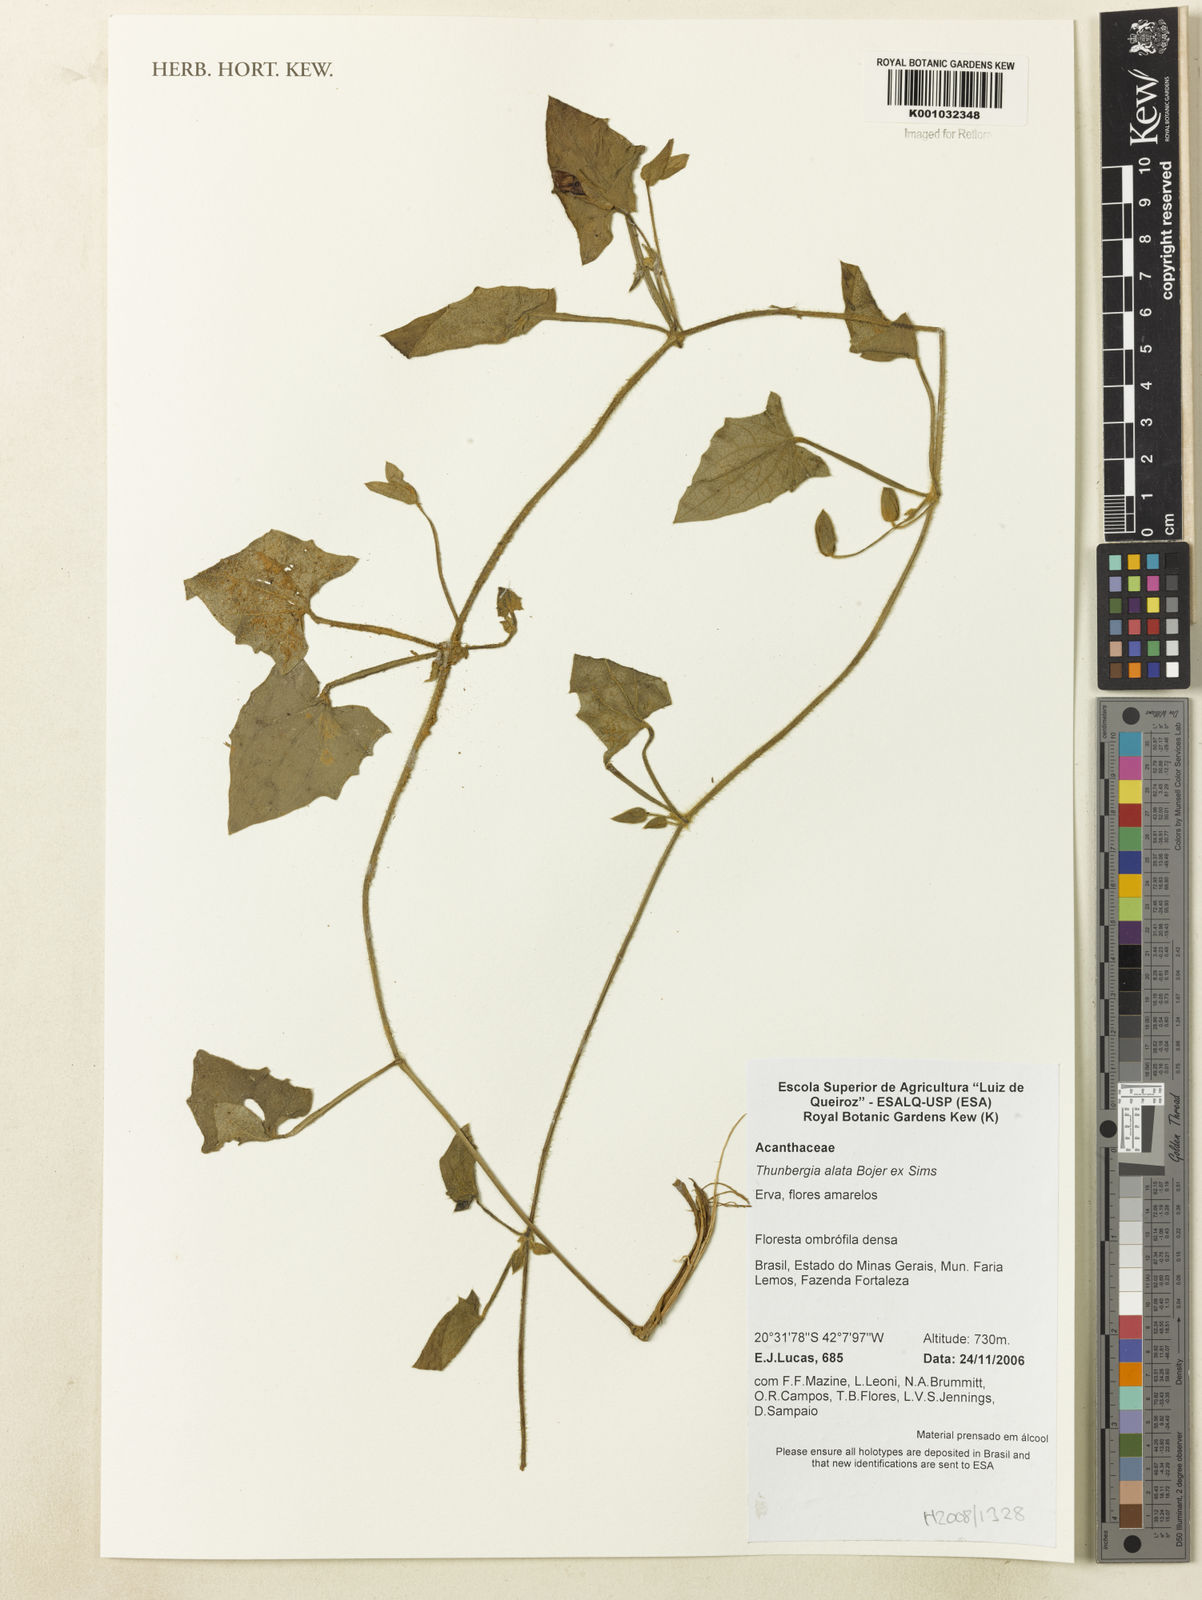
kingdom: Plantae
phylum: Tracheophyta
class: Magnoliopsida
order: Lamiales
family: Acanthaceae
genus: Thunbergia
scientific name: Thunbergia alata
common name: Blackeyed susan vine
